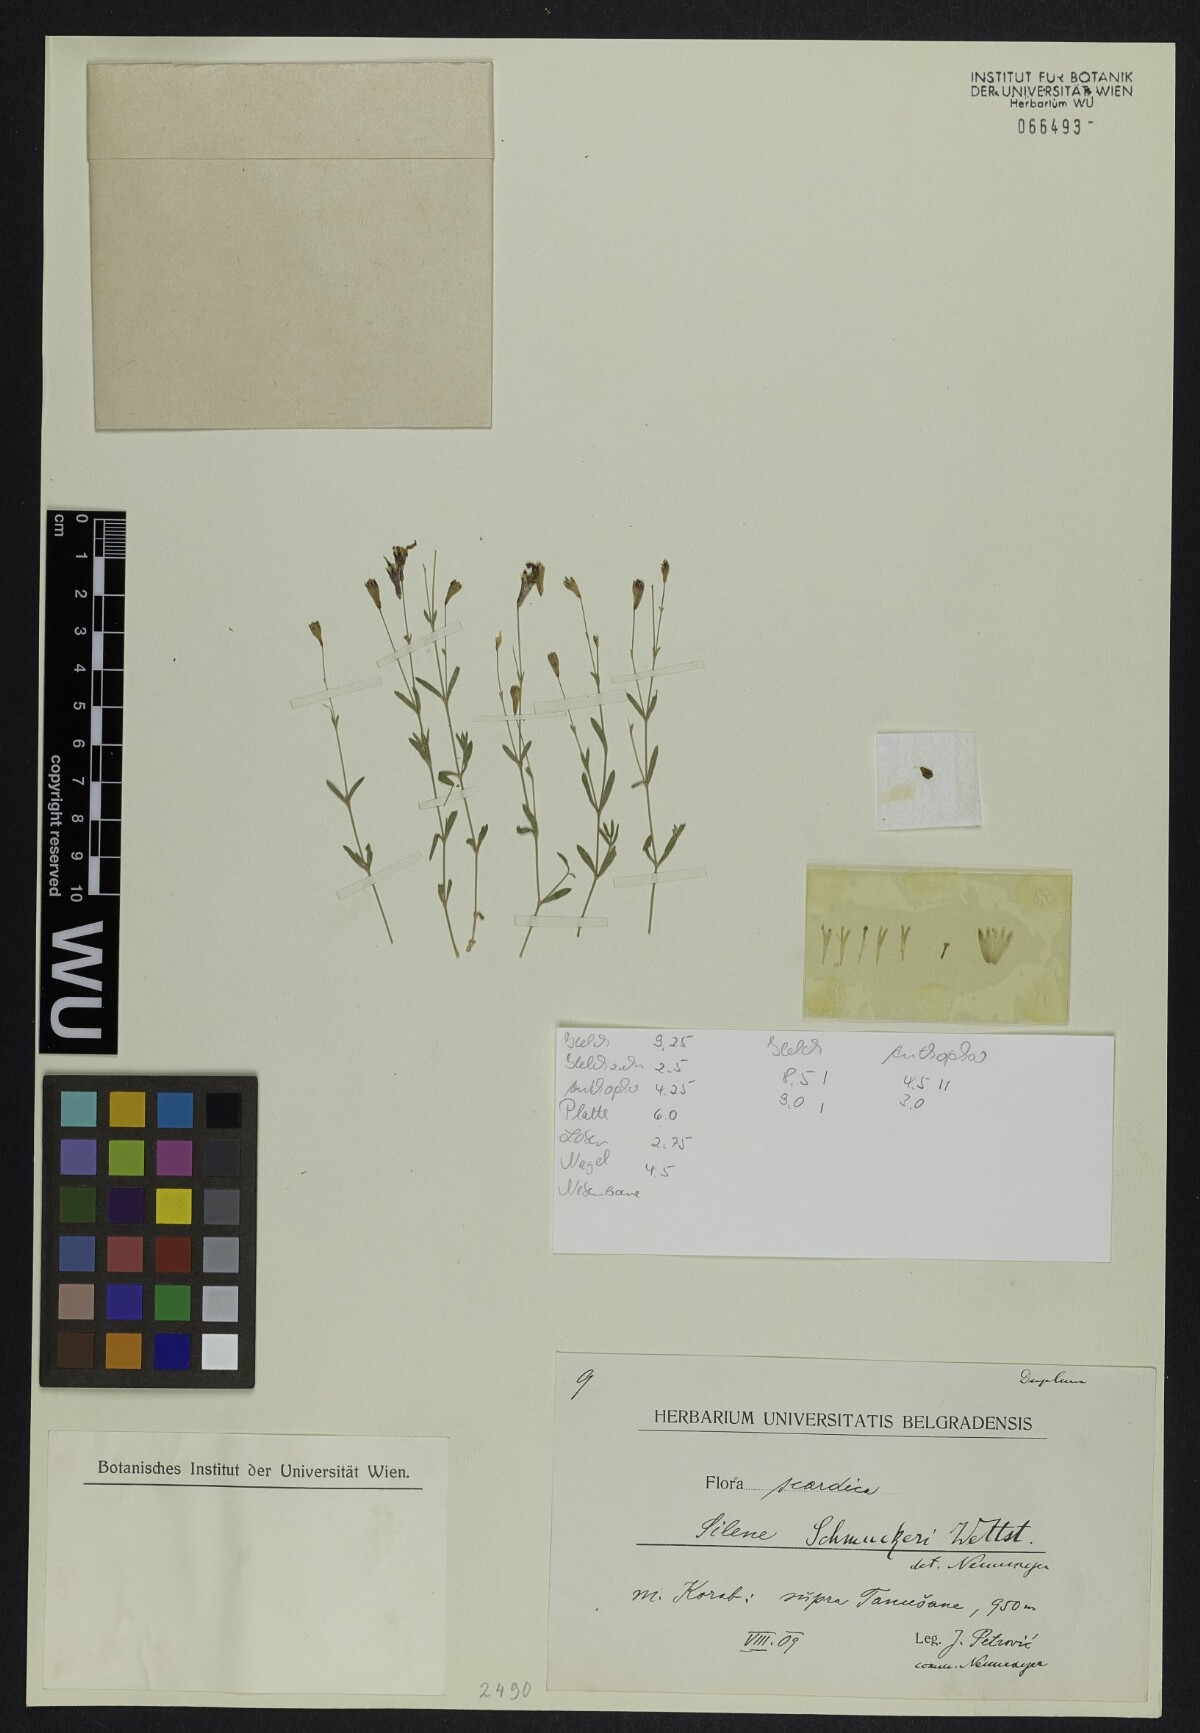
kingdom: Plantae
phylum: Tracheophyta
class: Magnoliopsida
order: Caryophyllales
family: Caryophyllaceae
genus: Silene
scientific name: Silene schmuckeri
